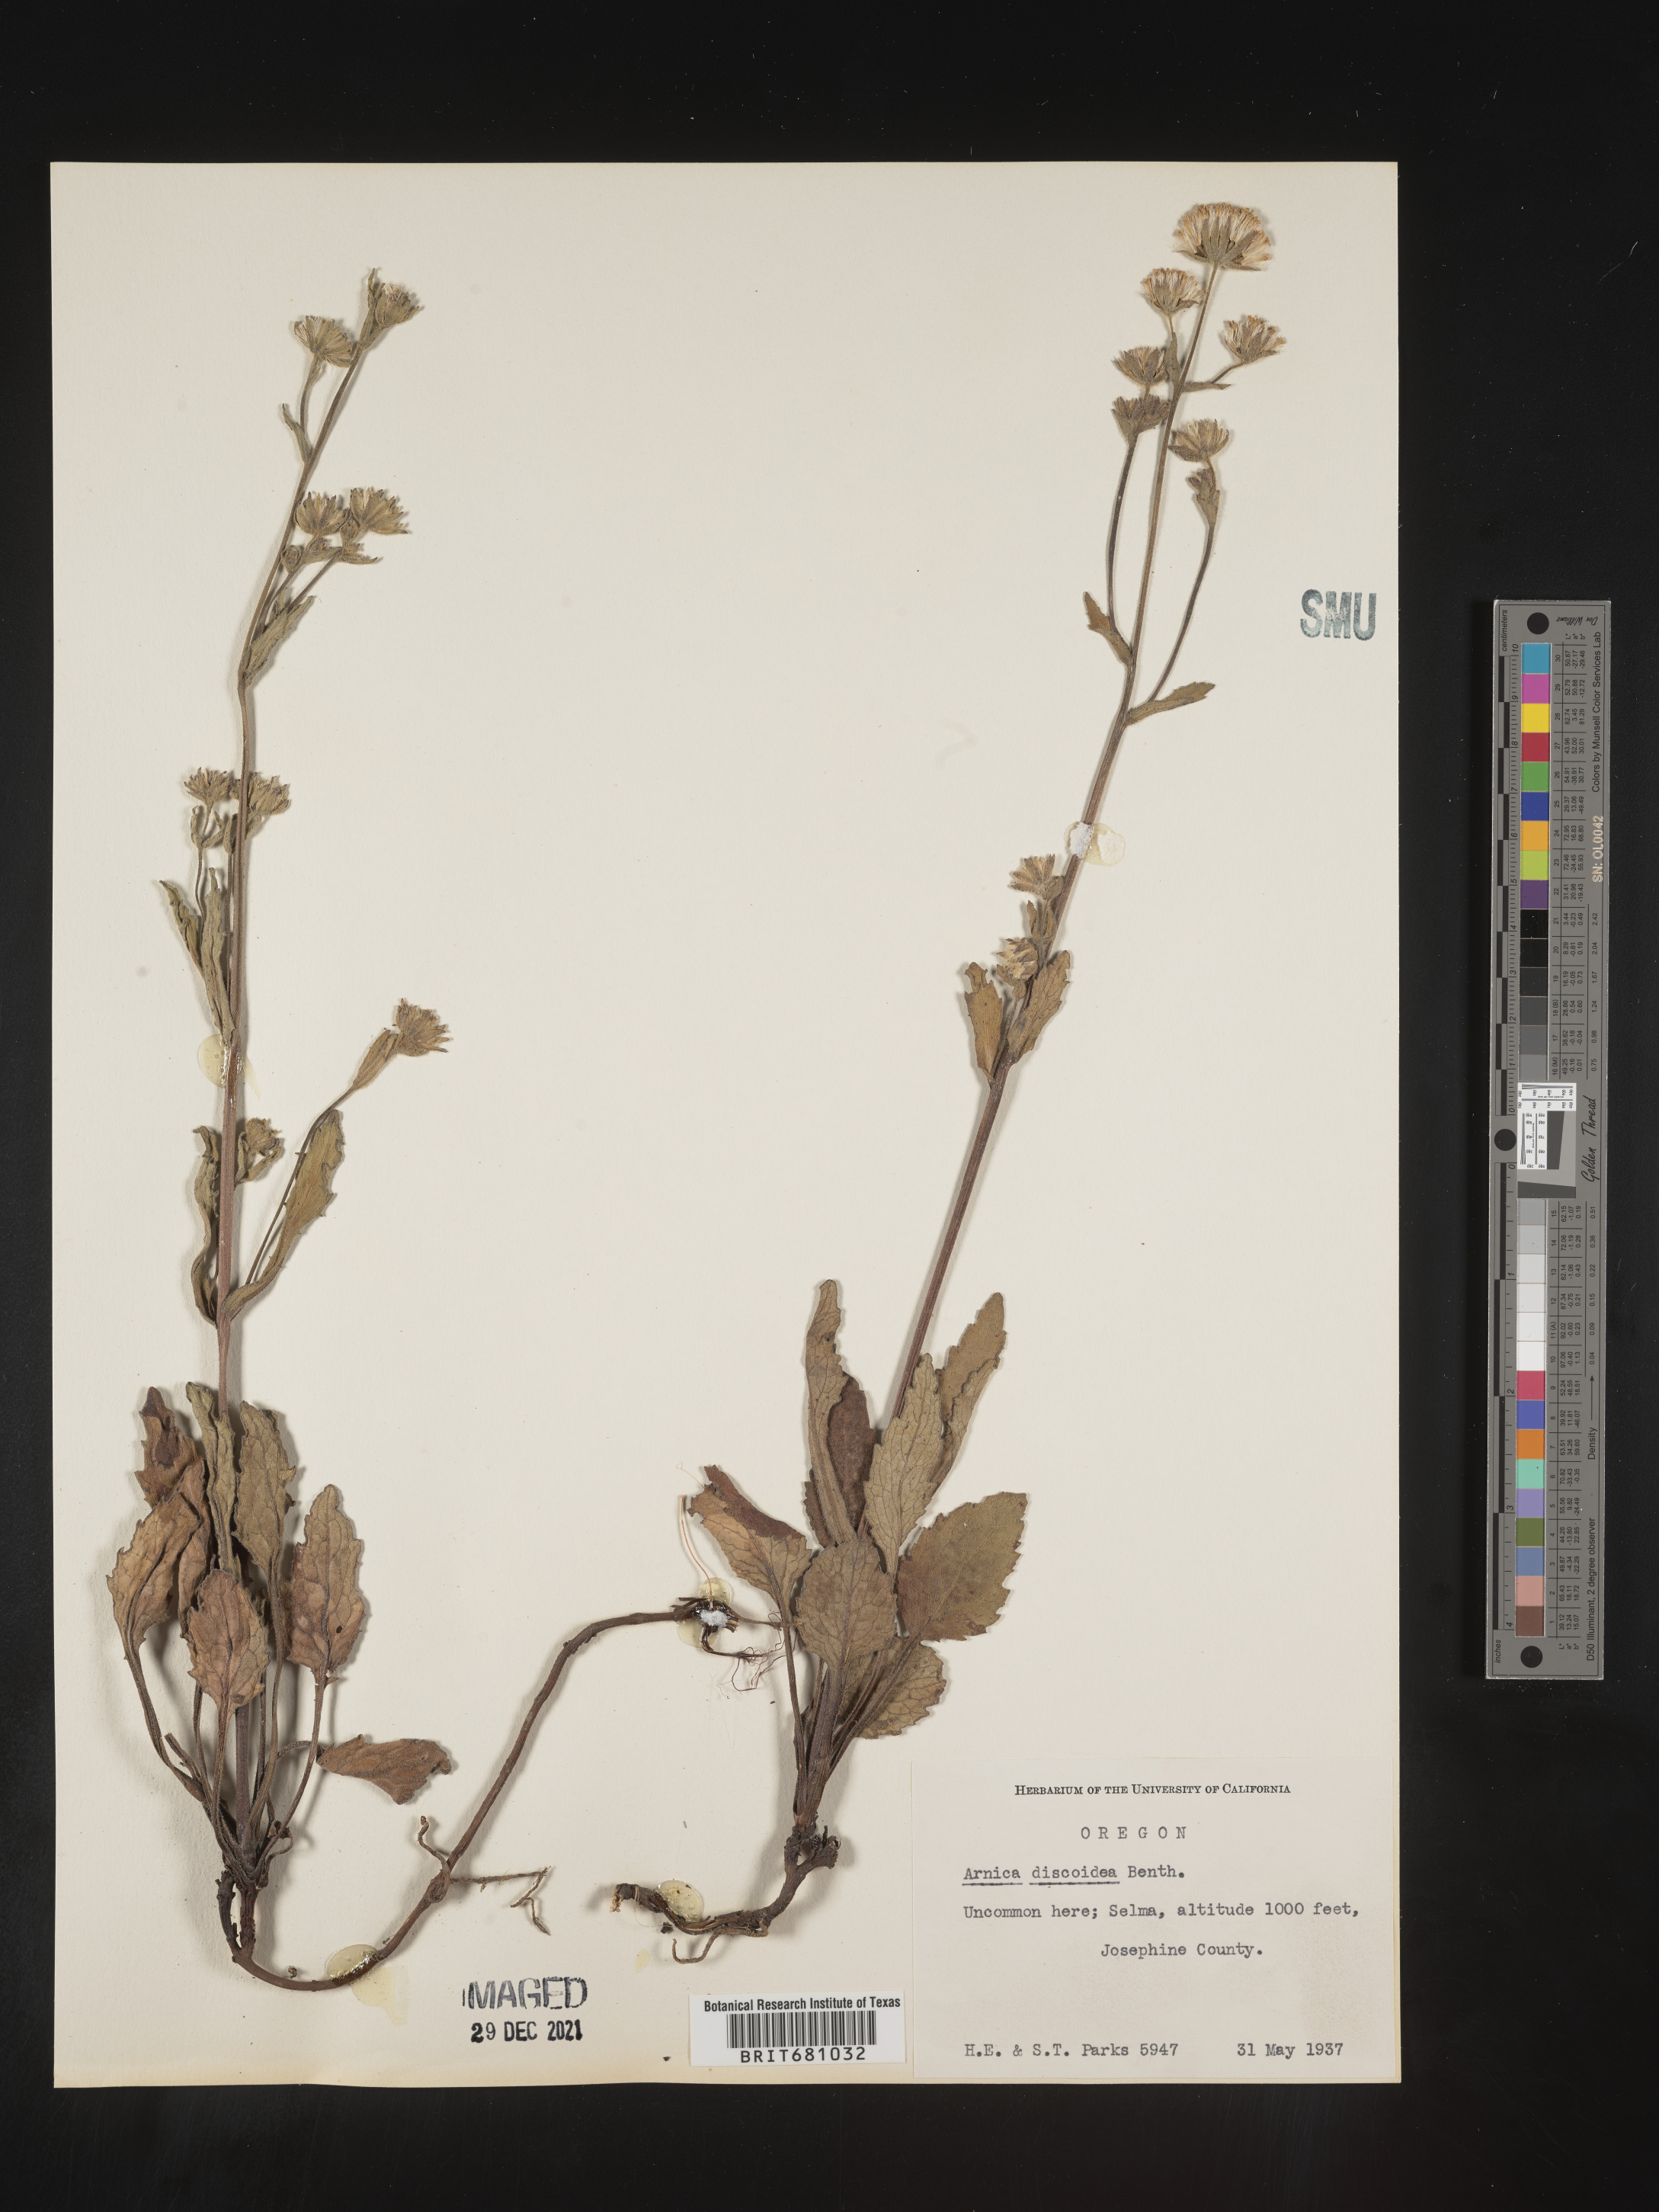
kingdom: Plantae
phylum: Tracheophyta
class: Magnoliopsida
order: Asterales
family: Asteraceae
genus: Arnica
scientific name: Arnica
